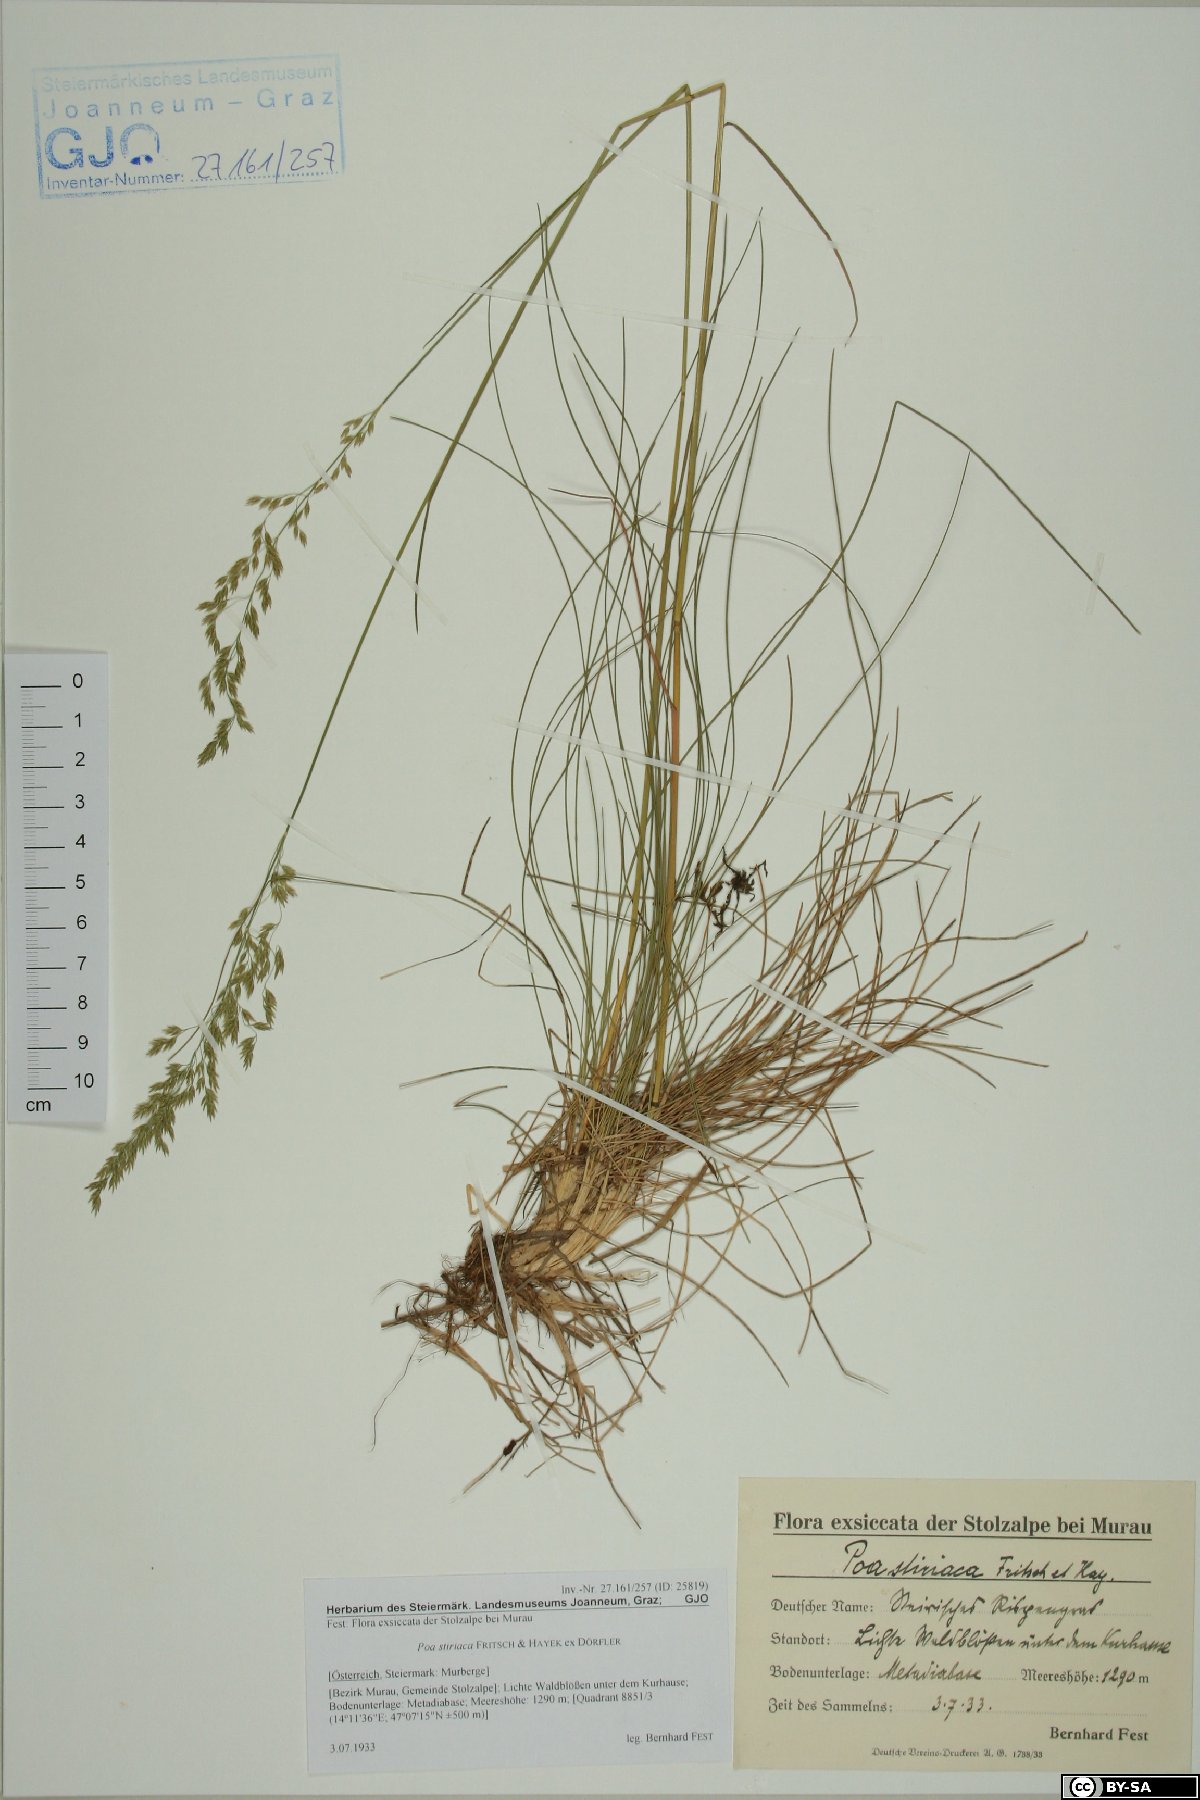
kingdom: Plantae
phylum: Tracheophyta
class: Liliopsida
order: Poales
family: Poaceae
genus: Poa
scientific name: Poa stiriaca
